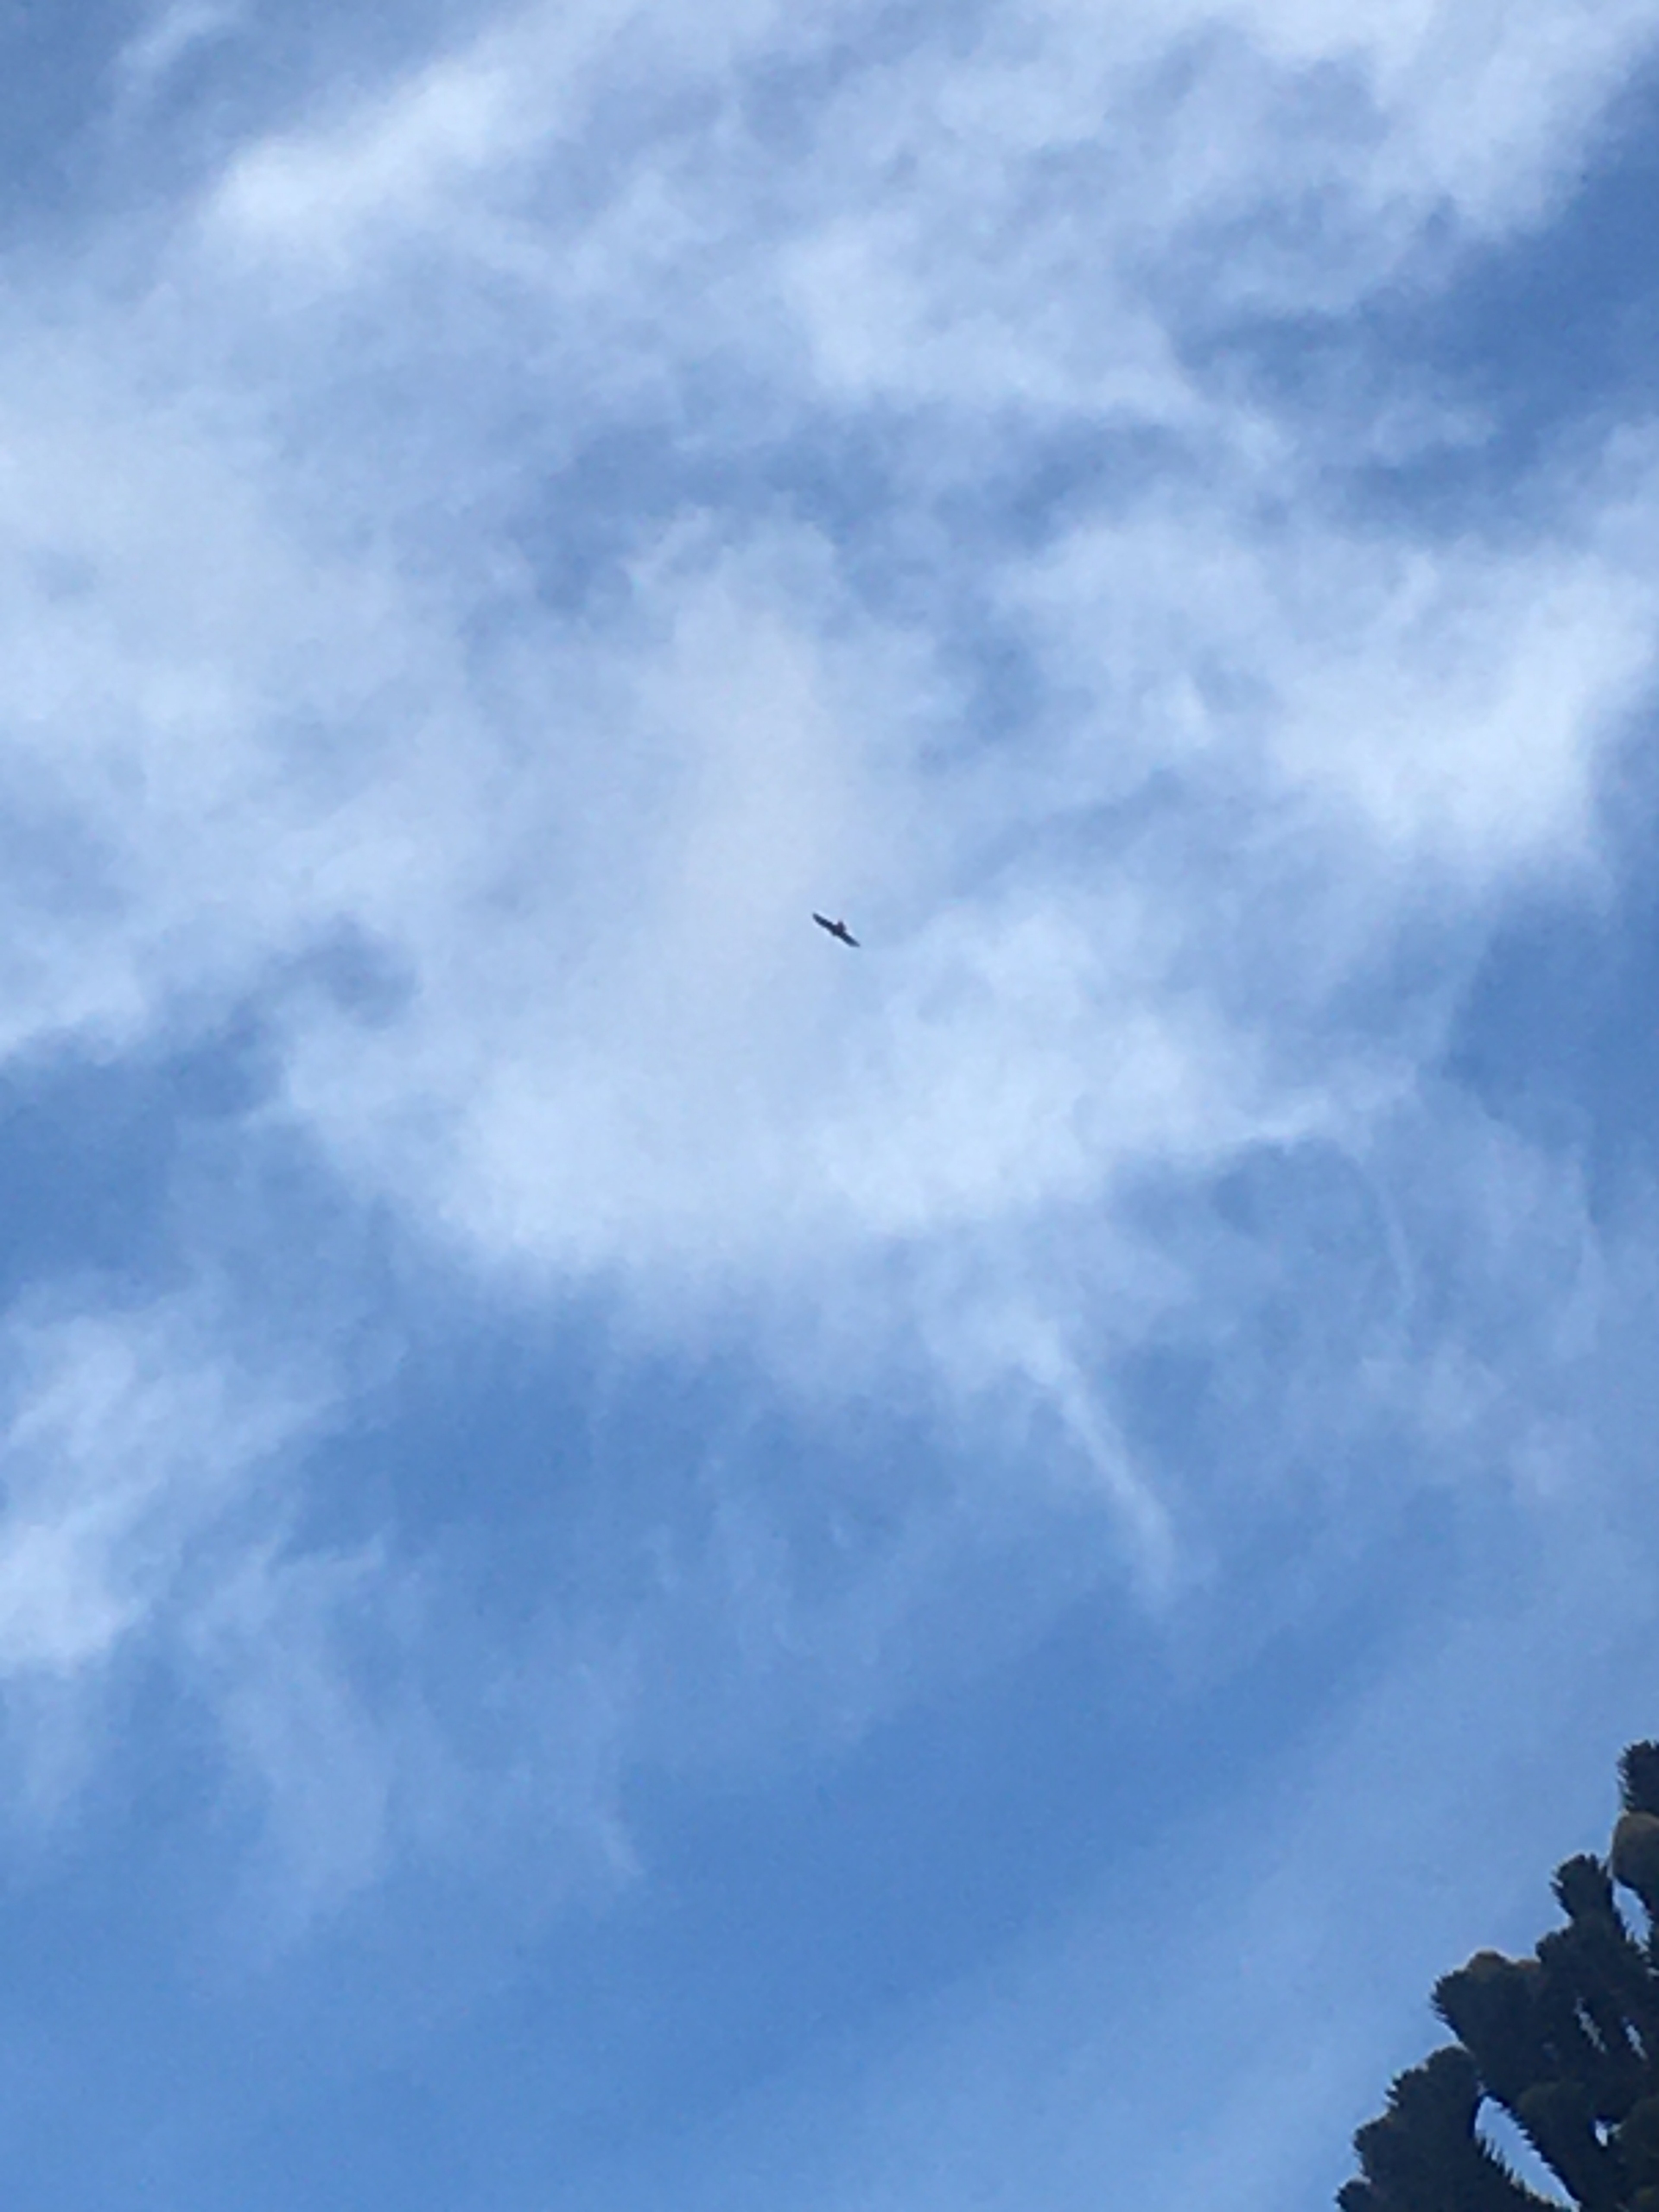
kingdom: Animalia
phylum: Chordata
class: Aves
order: Accipitriformes
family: Accipitridae
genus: Milvus
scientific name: Milvus milvus
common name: Rød glente
